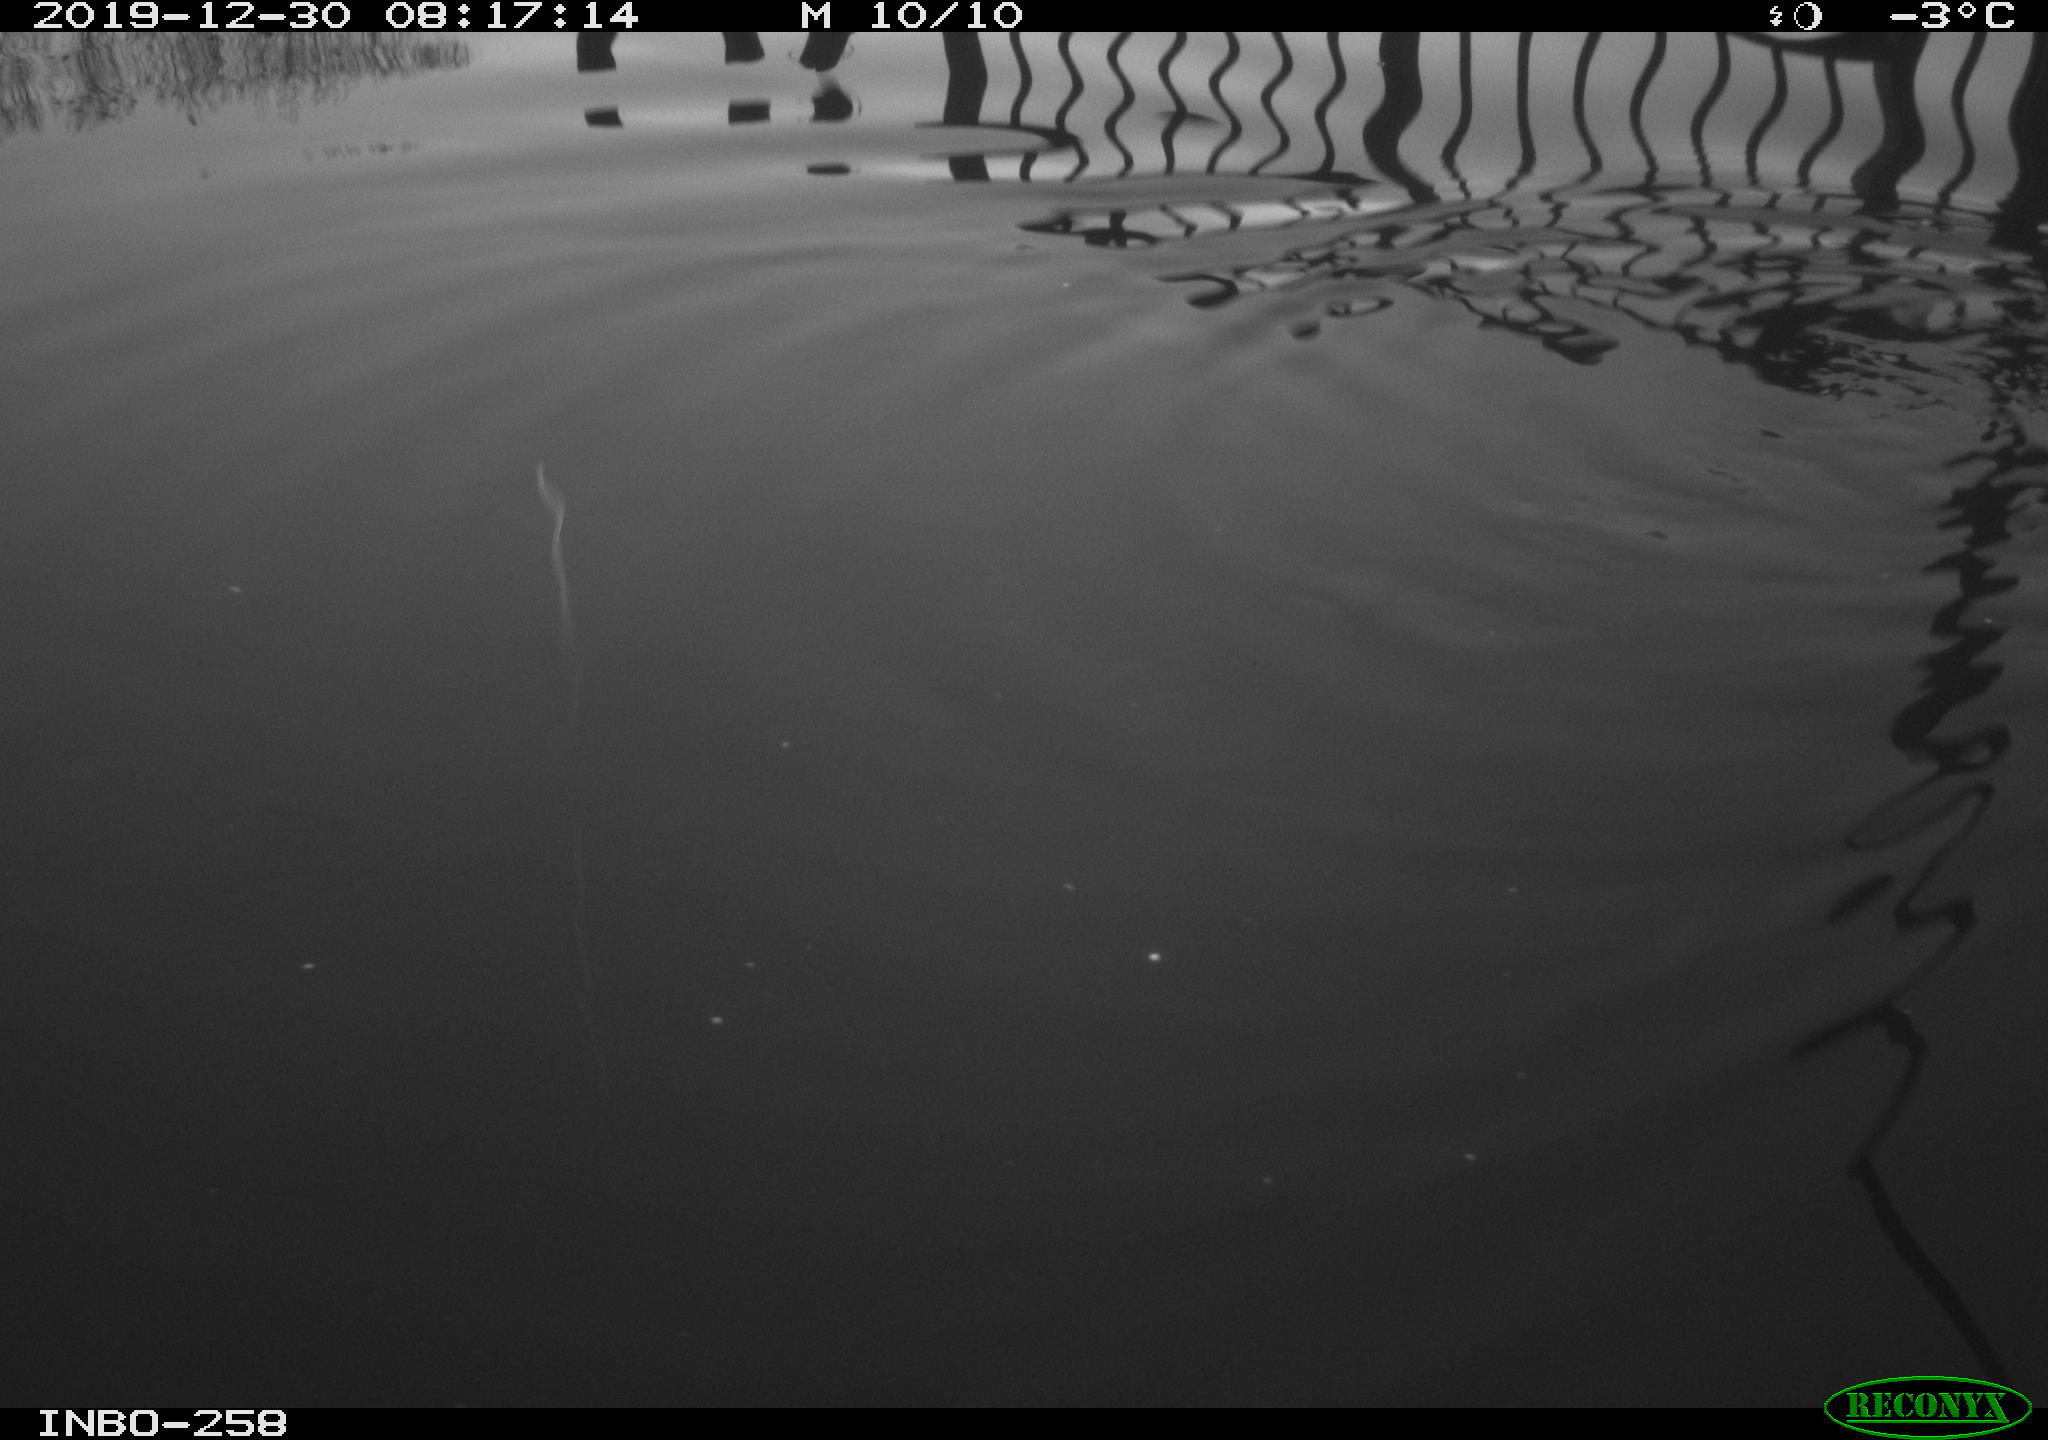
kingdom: Animalia
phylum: Chordata
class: Aves
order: Gruiformes
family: Rallidae
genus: Gallinula
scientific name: Gallinula chloropus
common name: Common moorhen
